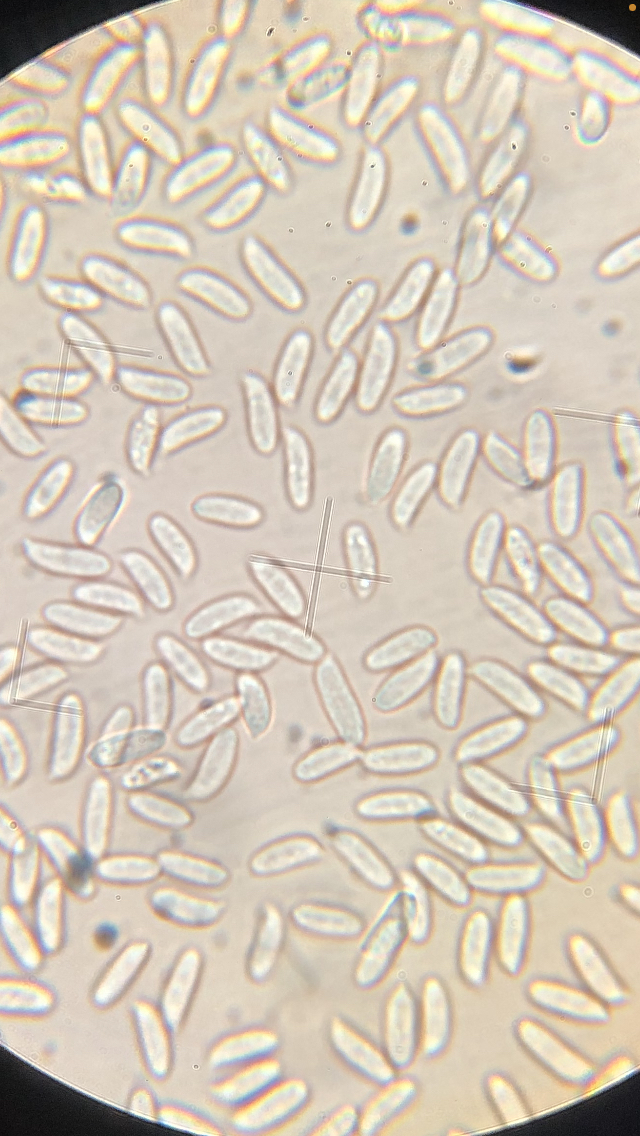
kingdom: Fungi
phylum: Basidiomycota
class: Agaricomycetes
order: Agaricales
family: Physalacriaceae
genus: Flammulina
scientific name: Flammulina elastica
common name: pile-fløjlsfod
